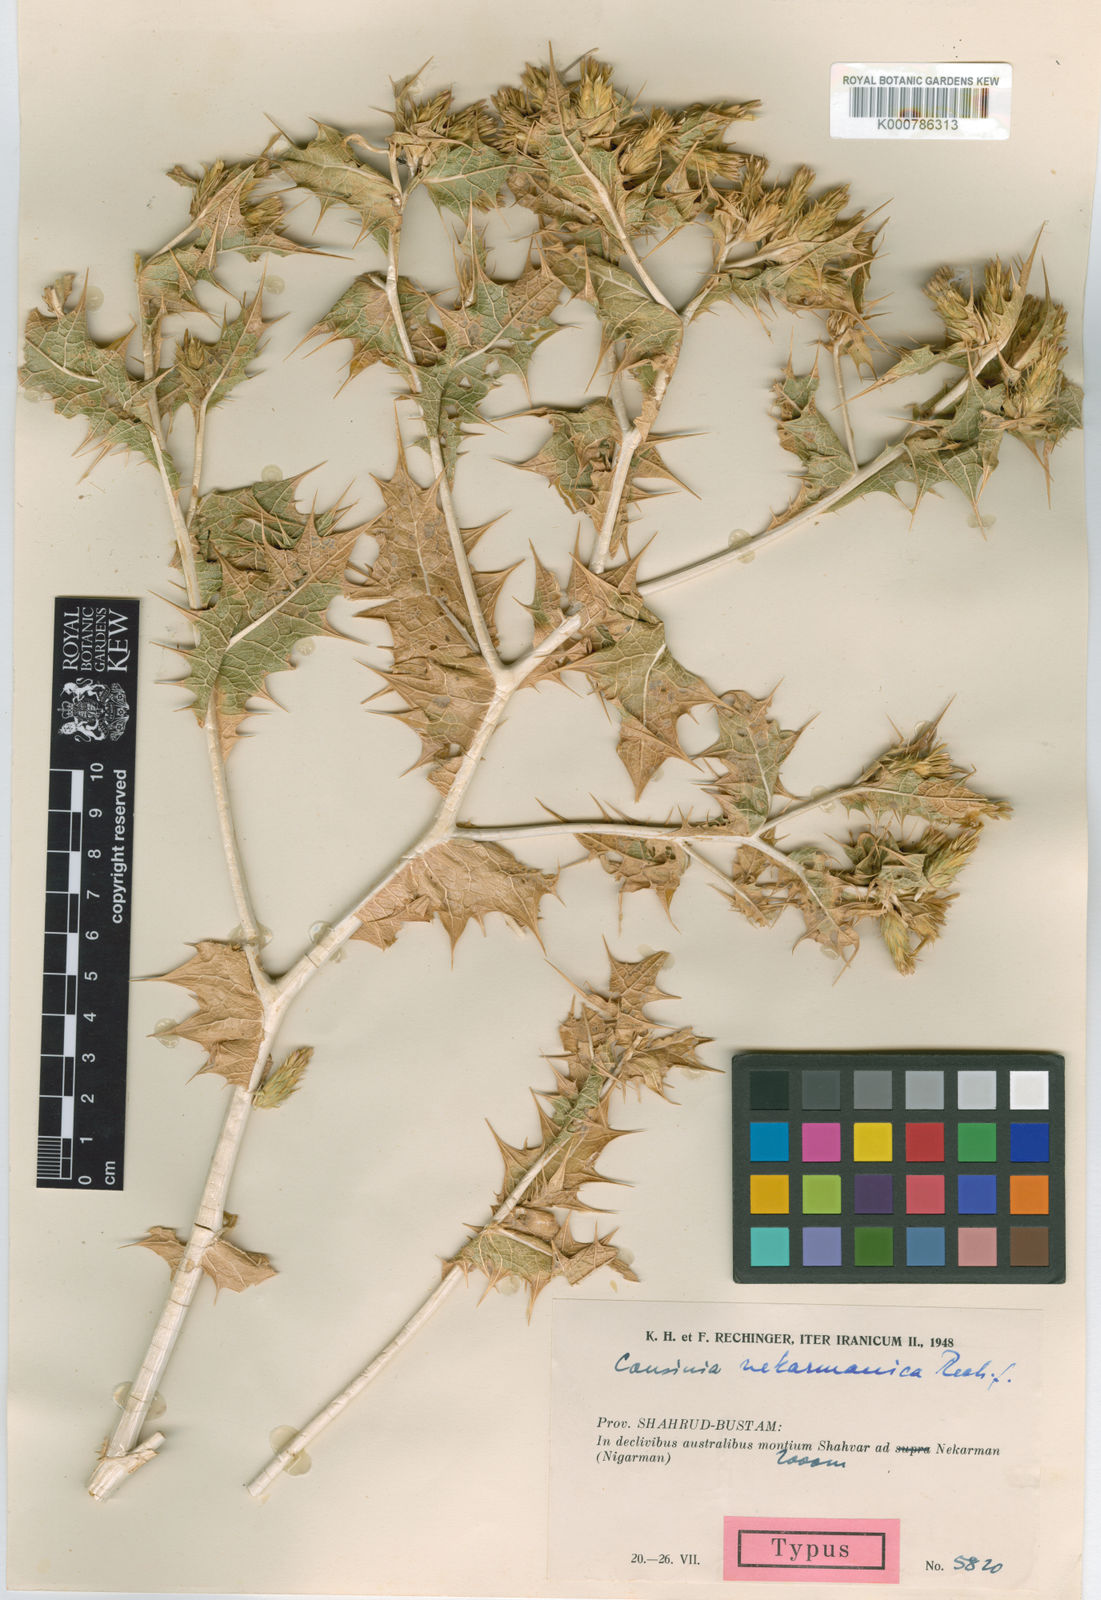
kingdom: Plantae
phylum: Tracheophyta
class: Magnoliopsida
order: Asterales
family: Asteraceae
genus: Cousinia
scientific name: Cousinia alexeenkoana
